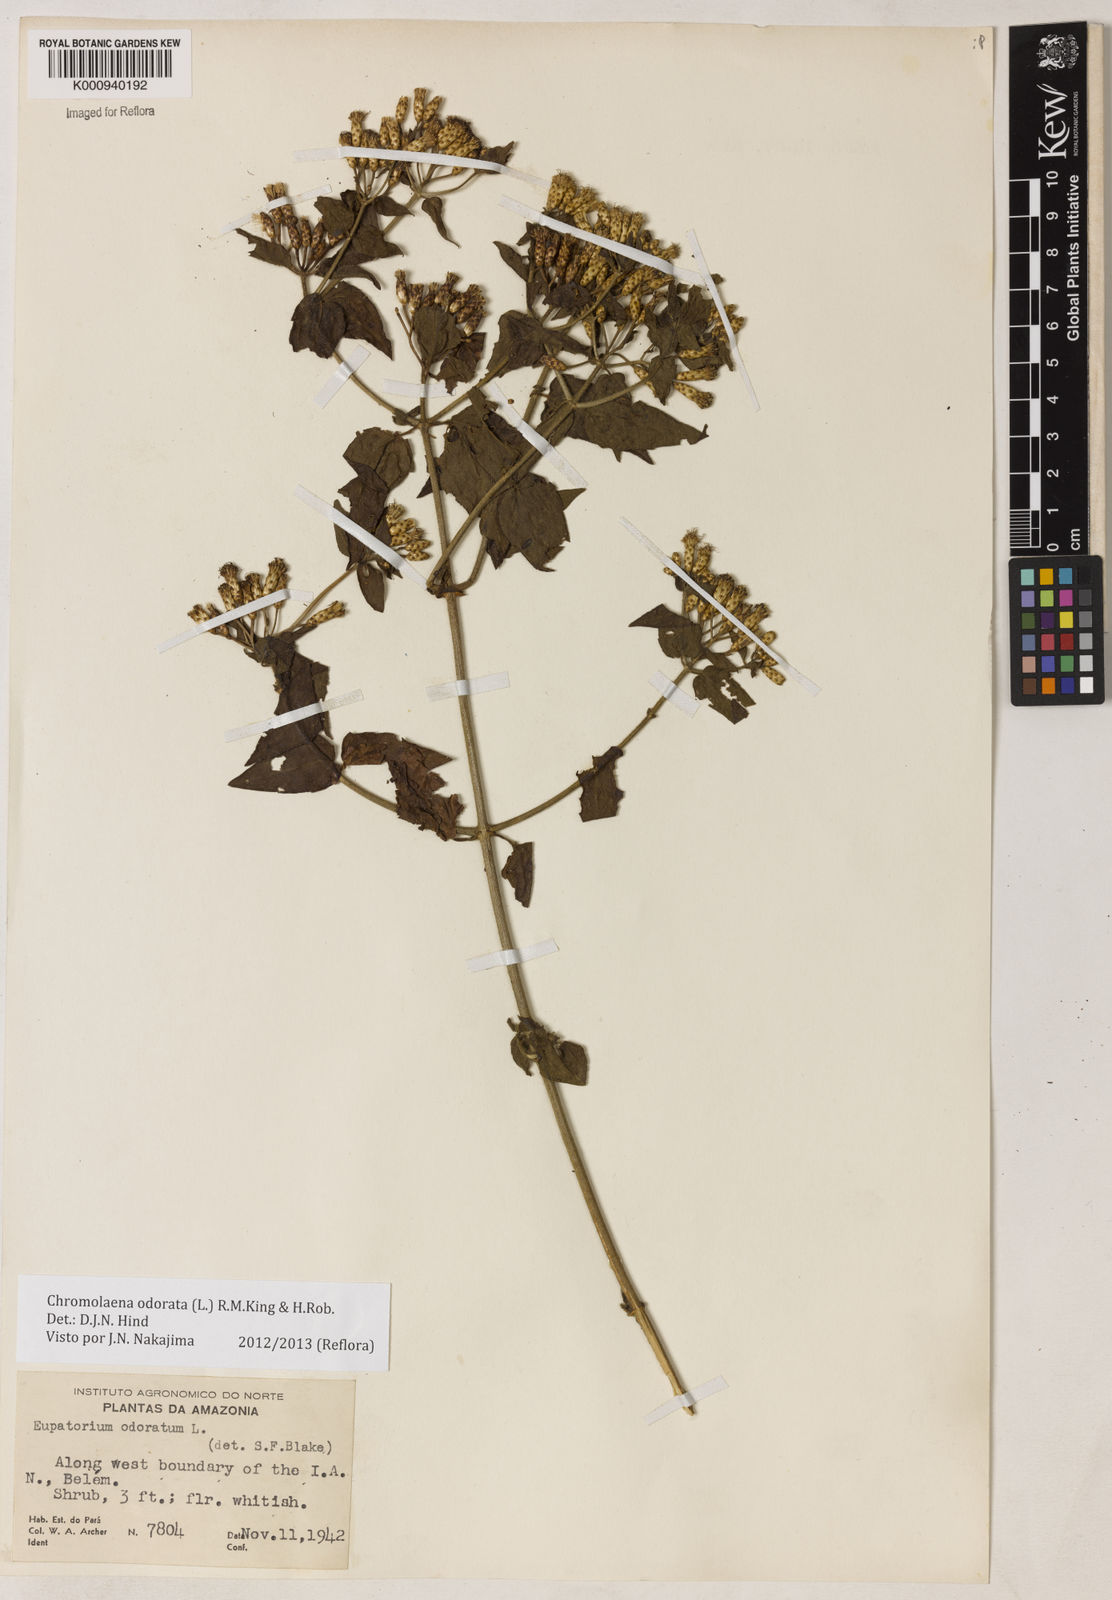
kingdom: Plantae
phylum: Tracheophyta
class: Magnoliopsida
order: Asterales
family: Asteraceae
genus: Chromolaena
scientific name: Chromolaena odorata
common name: Siamweed
